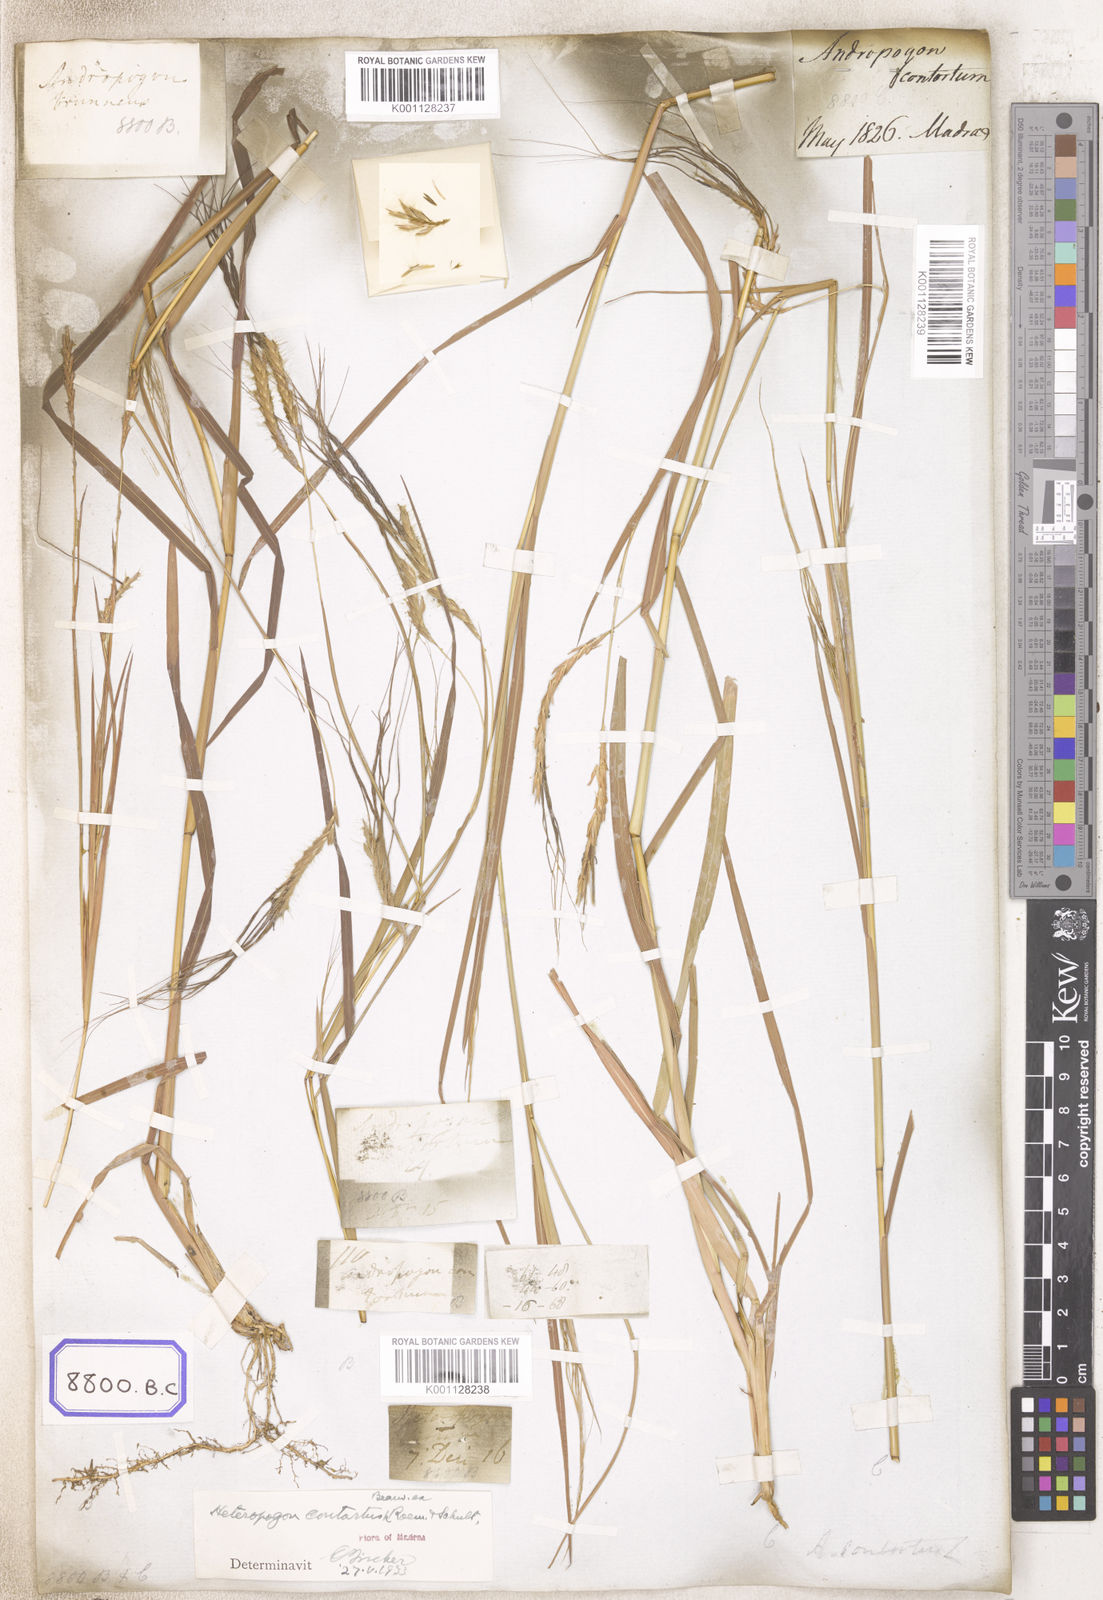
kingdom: Plantae
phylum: Tracheophyta
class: Liliopsida
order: Poales
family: Poaceae
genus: Heteropogon
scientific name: Heteropogon contortus
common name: Tanglehead
